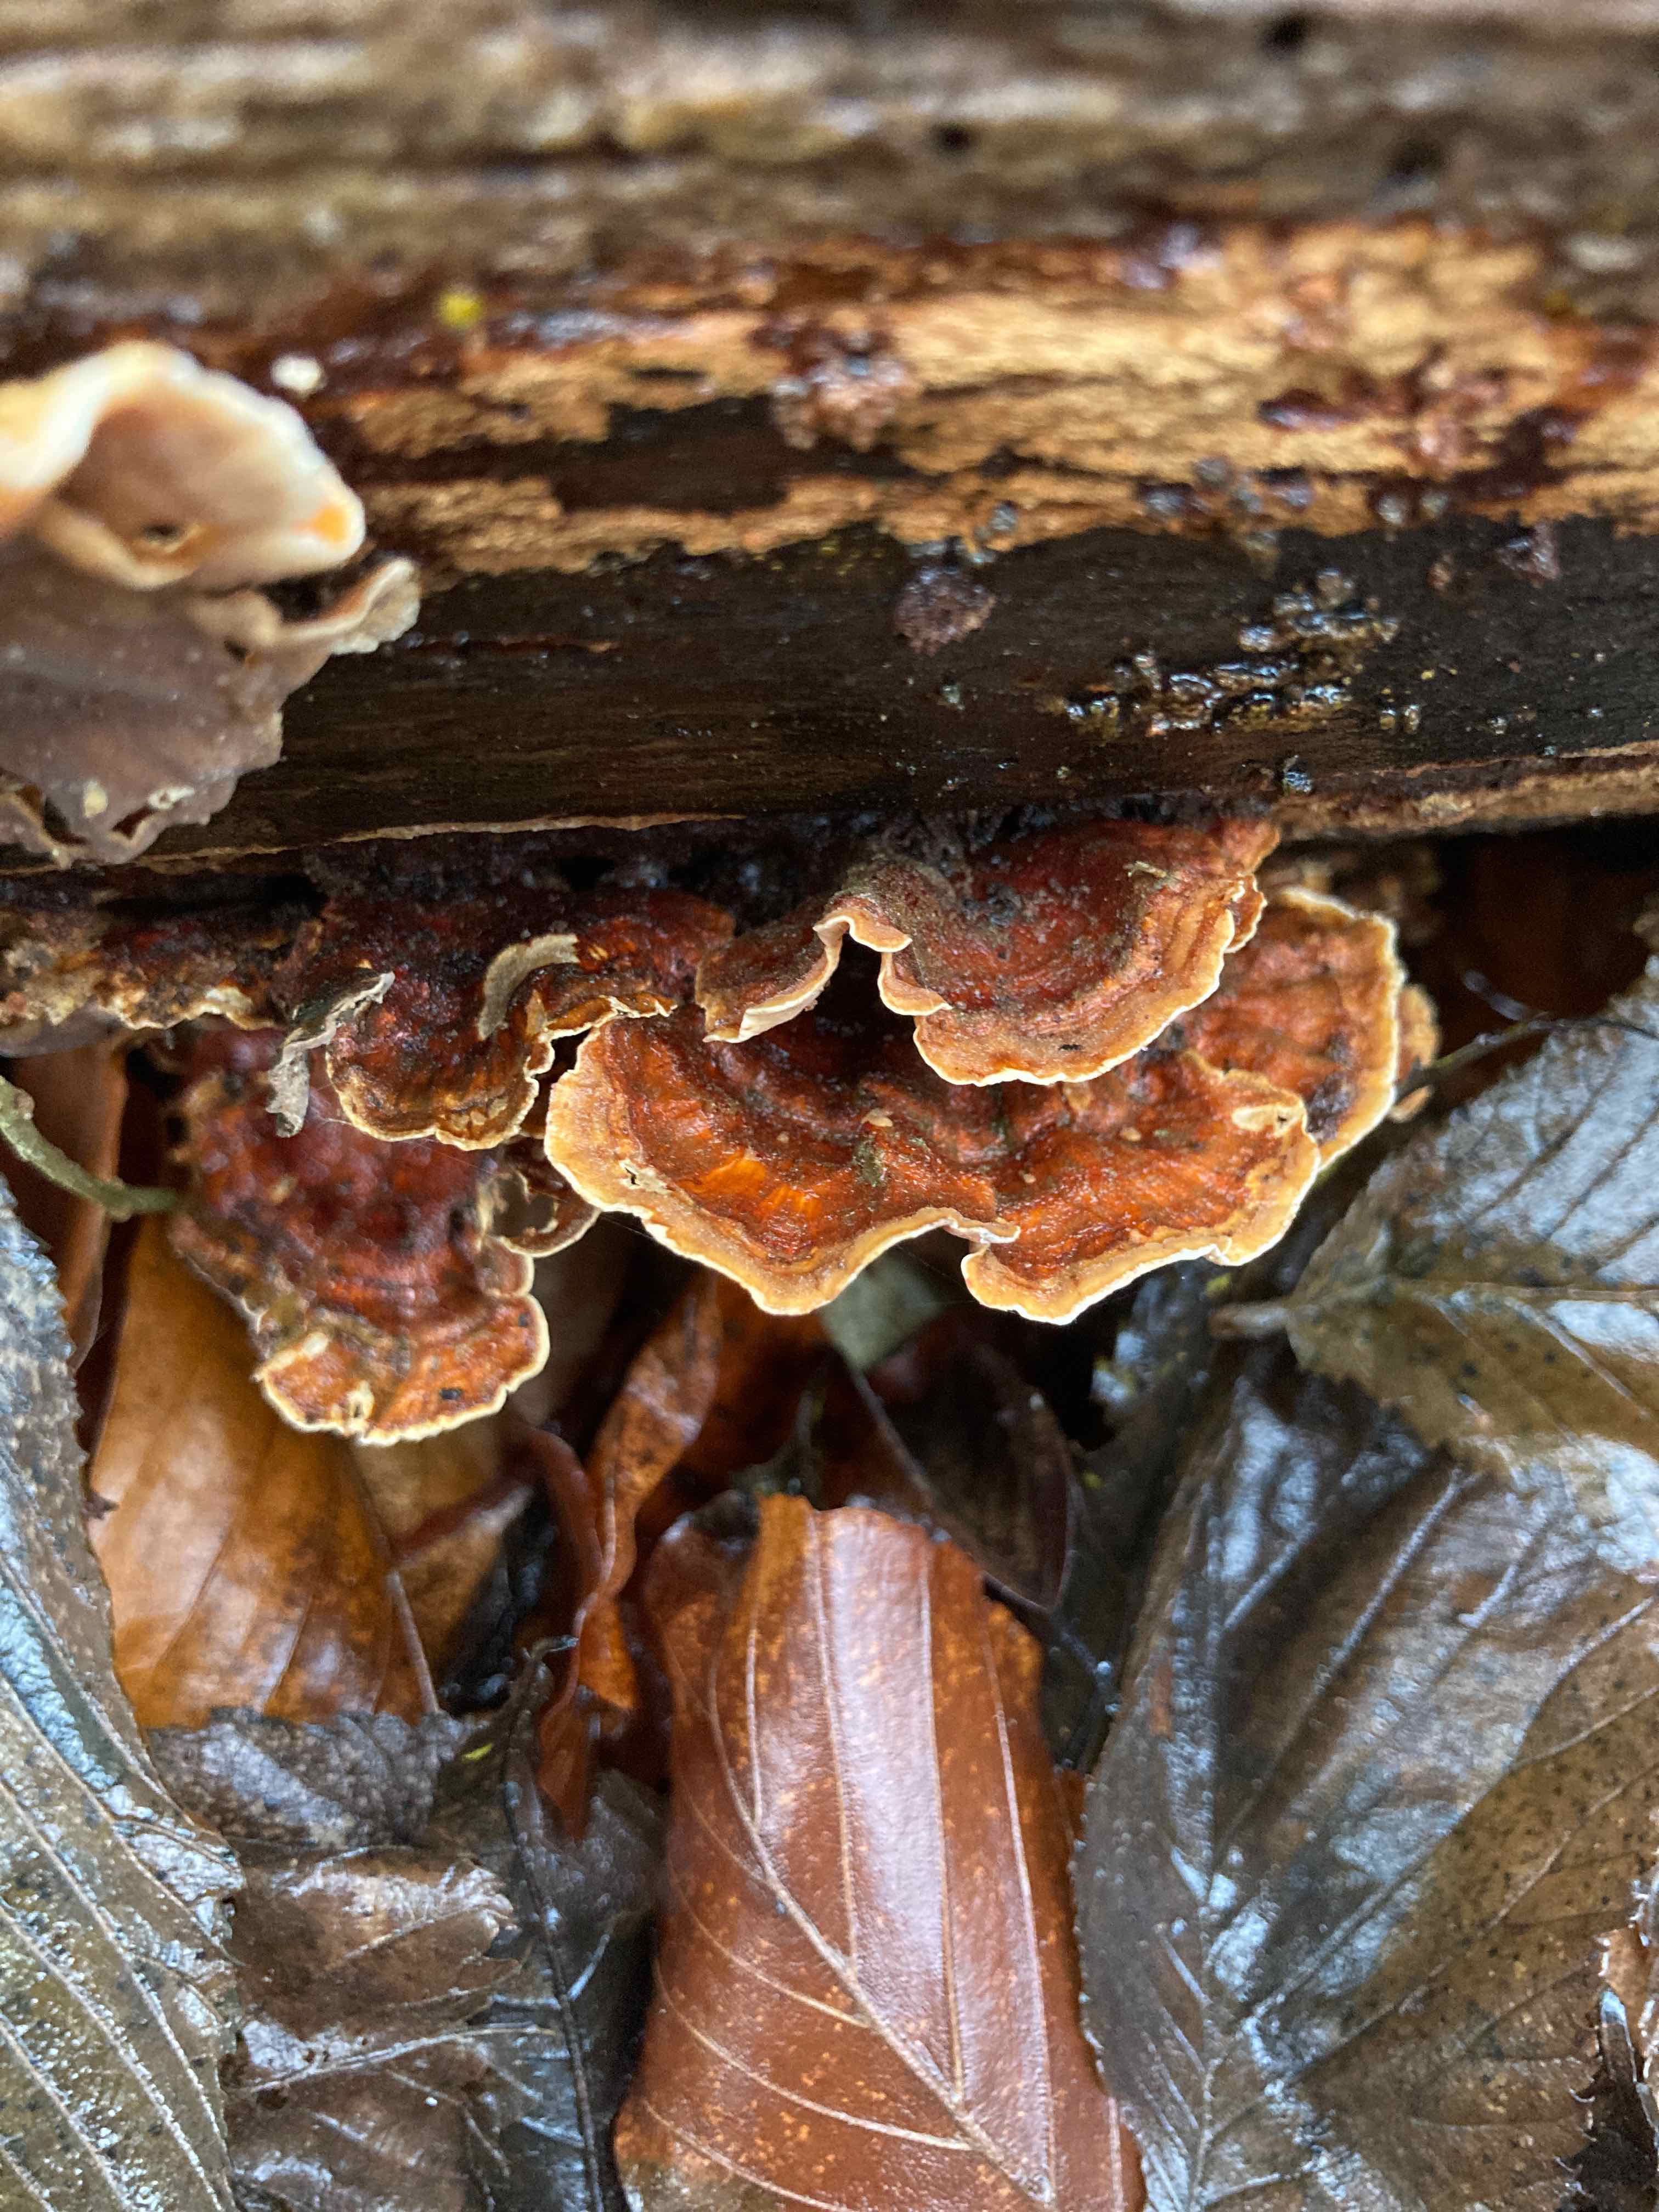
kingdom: Fungi
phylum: Basidiomycota
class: Agaricomycetes
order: Russulales
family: Stereaceae
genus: Stereum
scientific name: Stereum subtomentosum
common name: smuk lædersvamp
